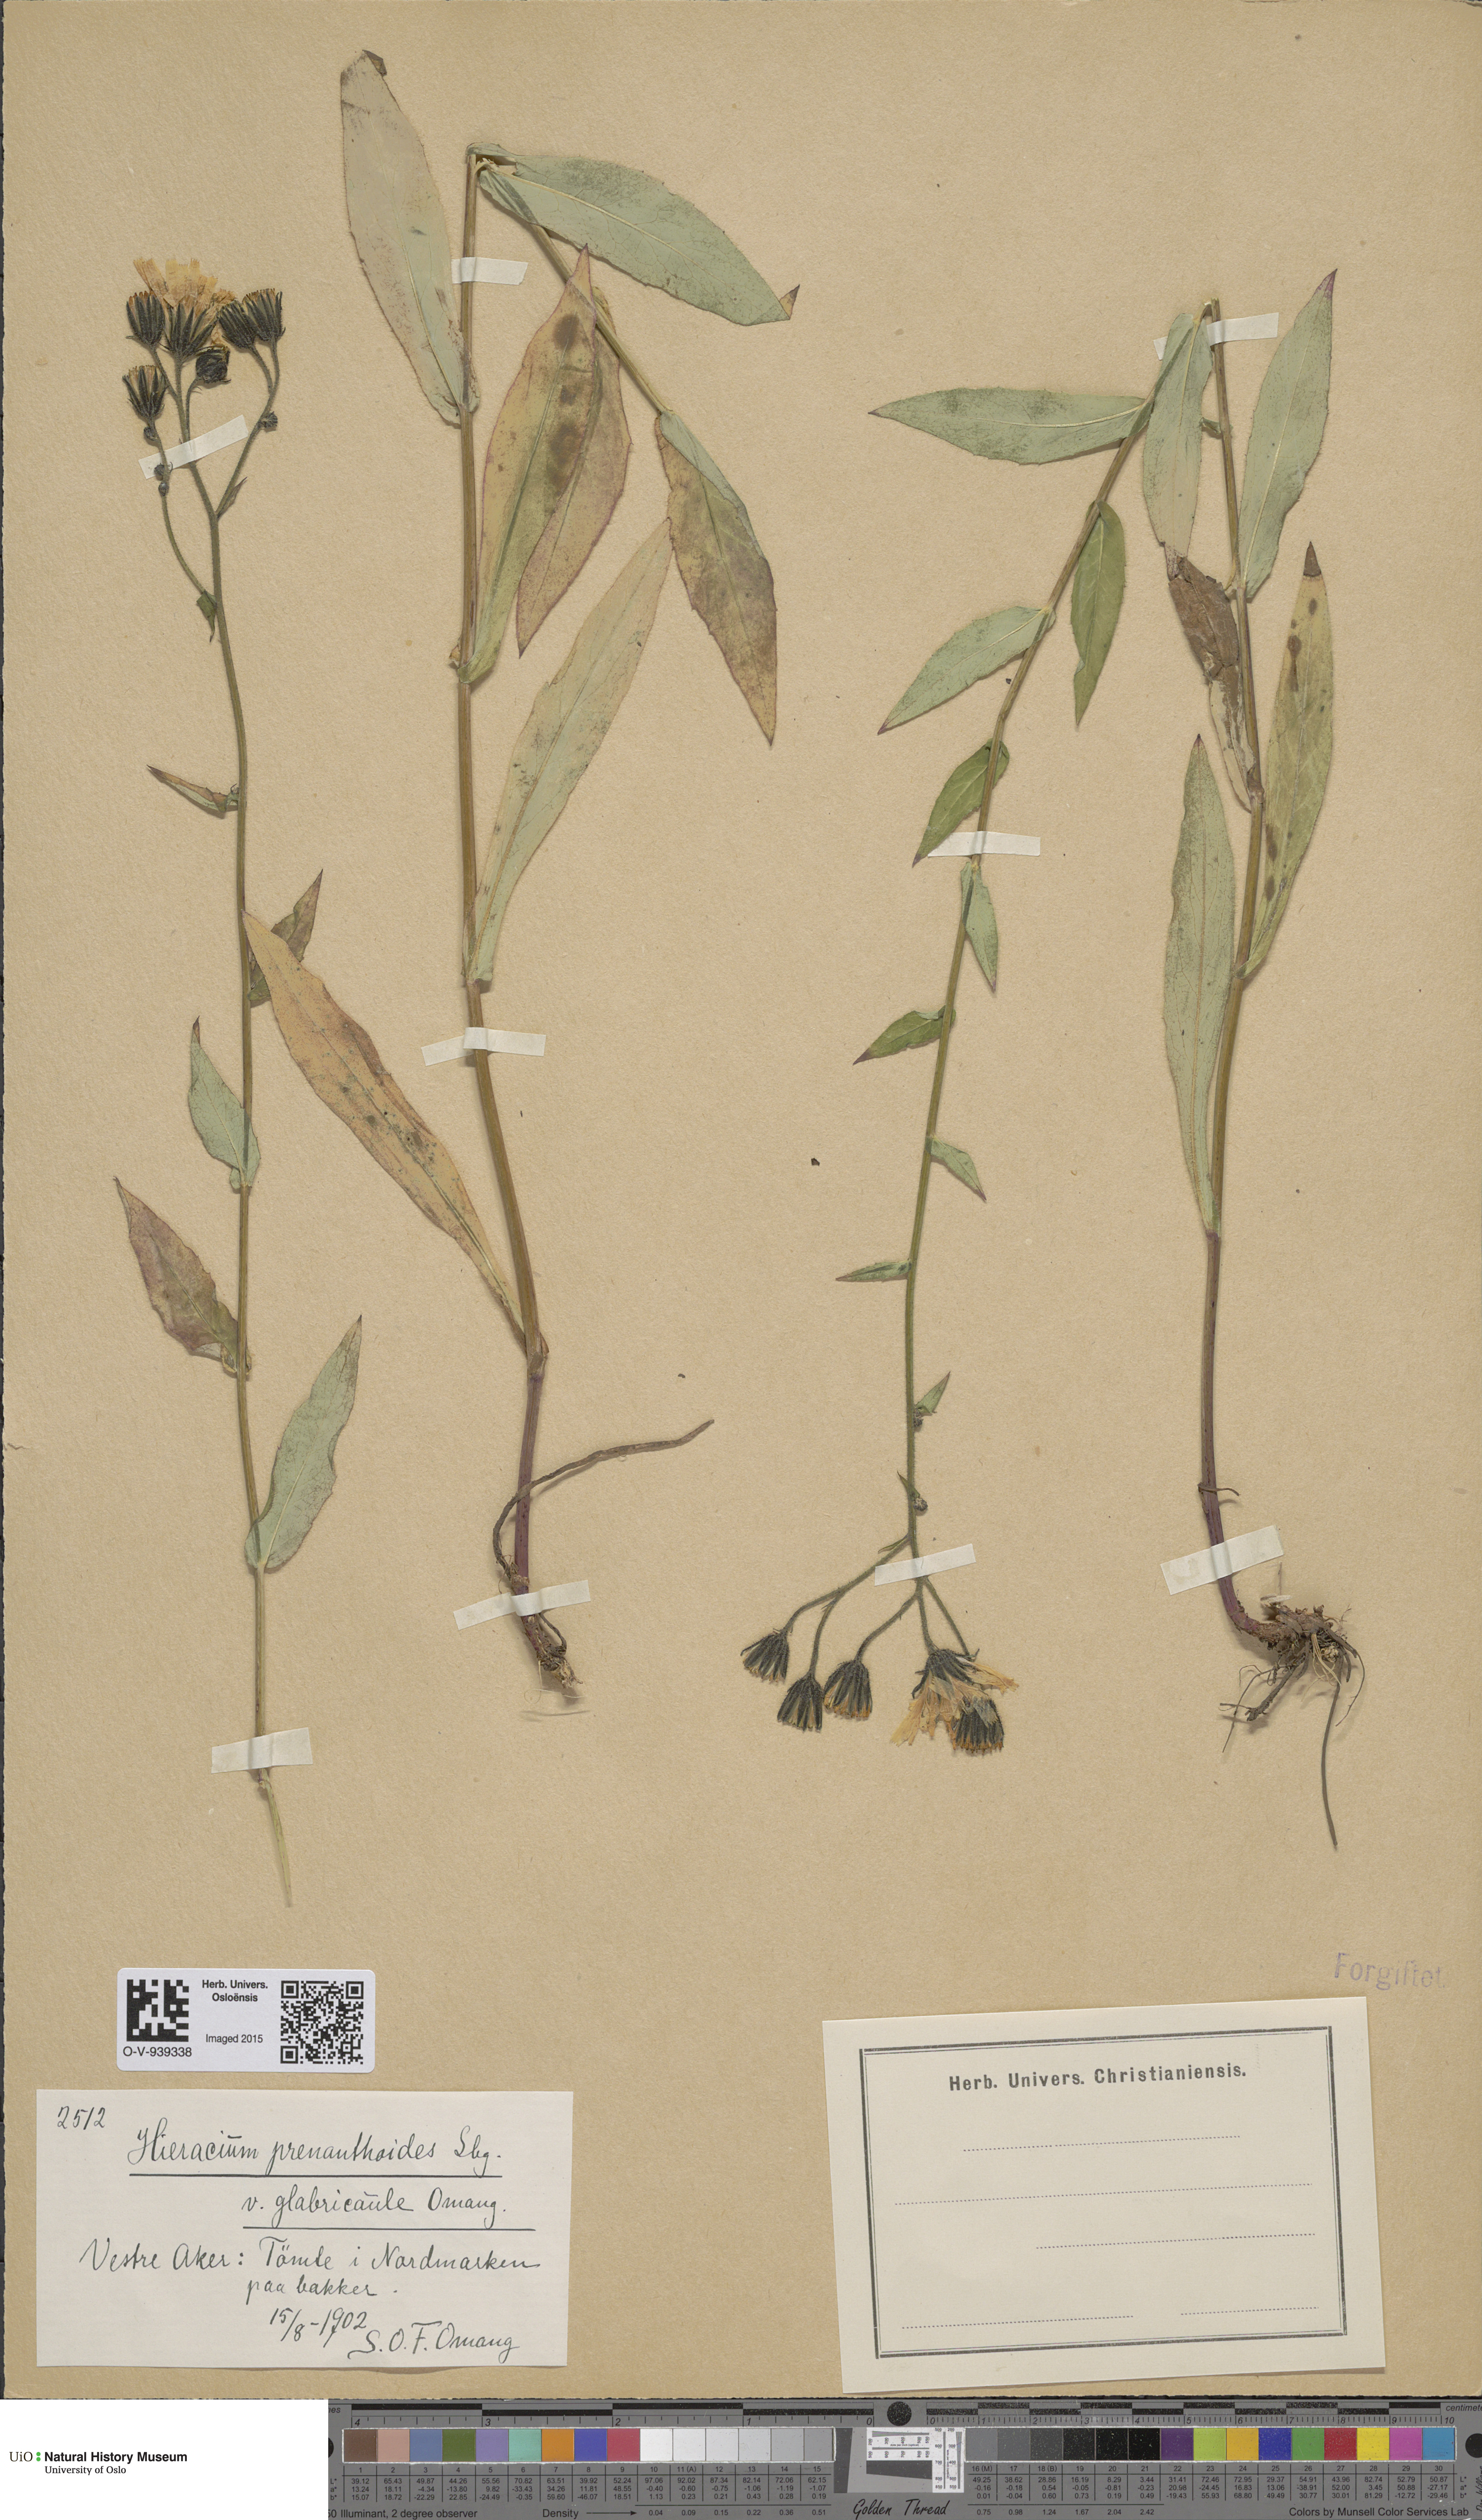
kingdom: Plantae
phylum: Tracheophyta
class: Magnoliopsida
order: Asterales
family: Asteraceae
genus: Hieracium
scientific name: Hieracium prenanthoides
